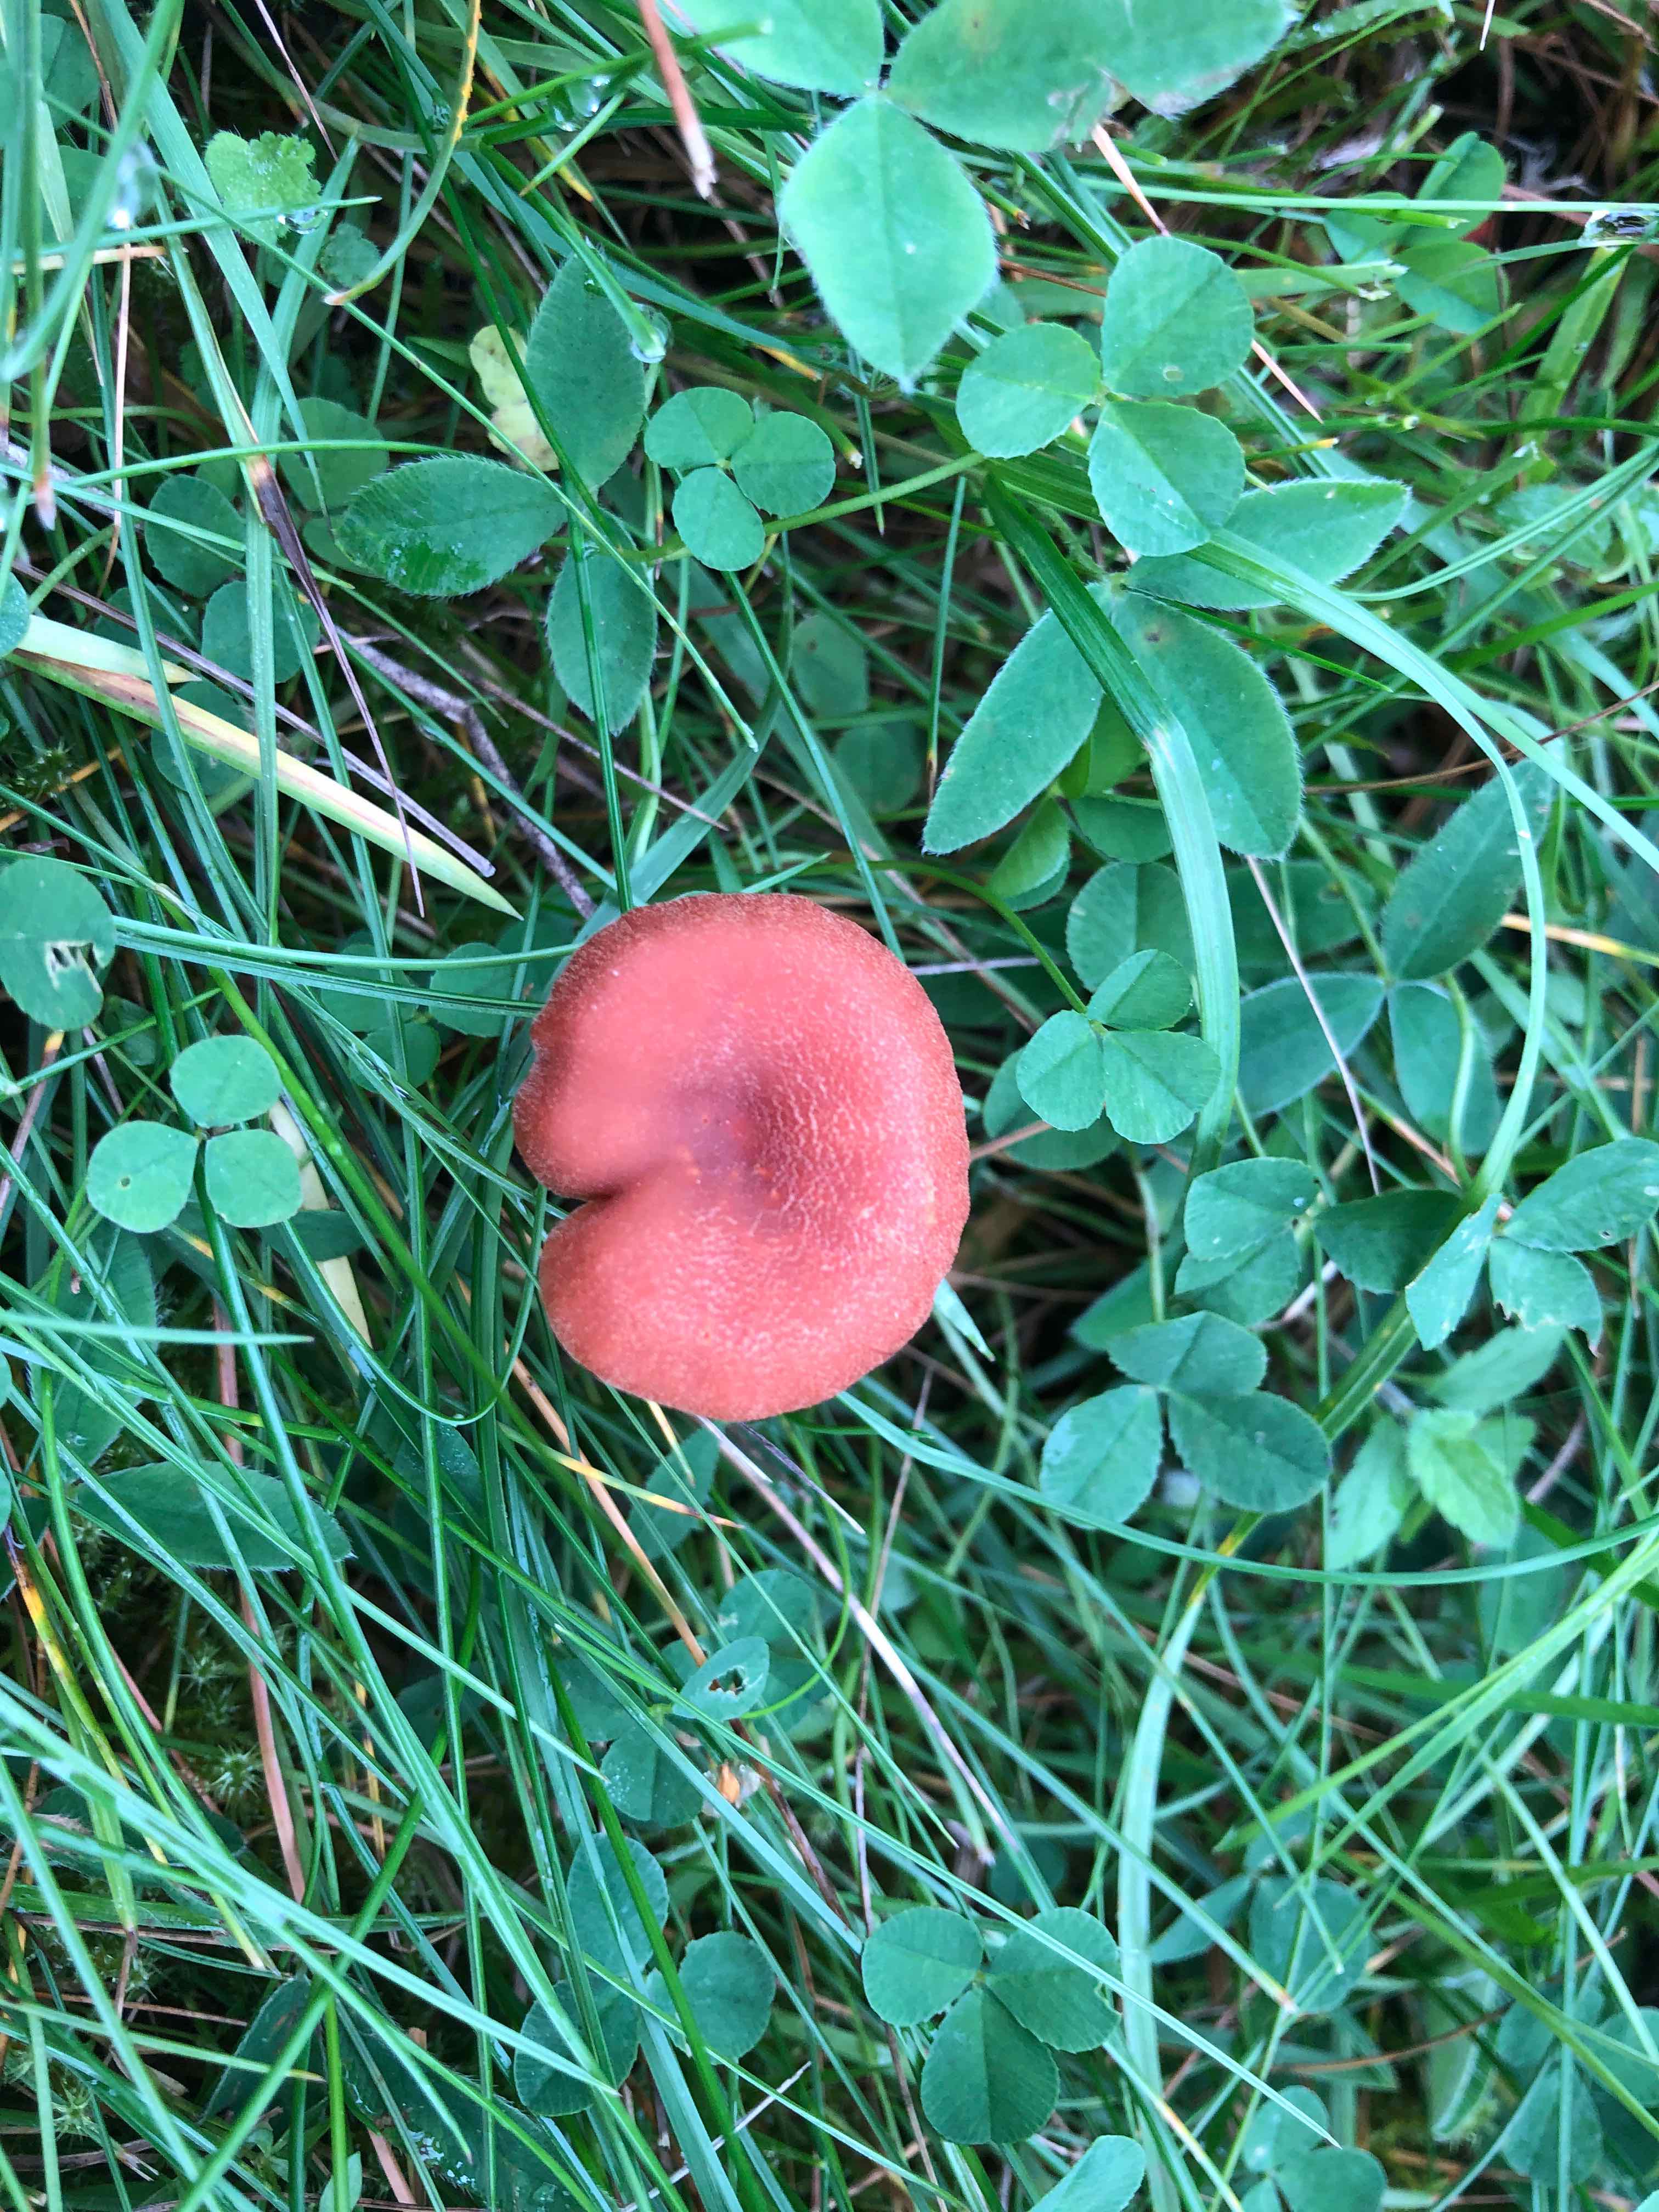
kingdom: Fungi
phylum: Basidiomycota
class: Agaricomycetes
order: Agaricales
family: Hydnangiaceae
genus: Laccaria
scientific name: Laccaria proxima
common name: stor ametysthat
